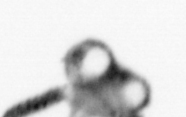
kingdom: Animalia
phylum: Annelida
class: Polychaeta
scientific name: Polychaeta
